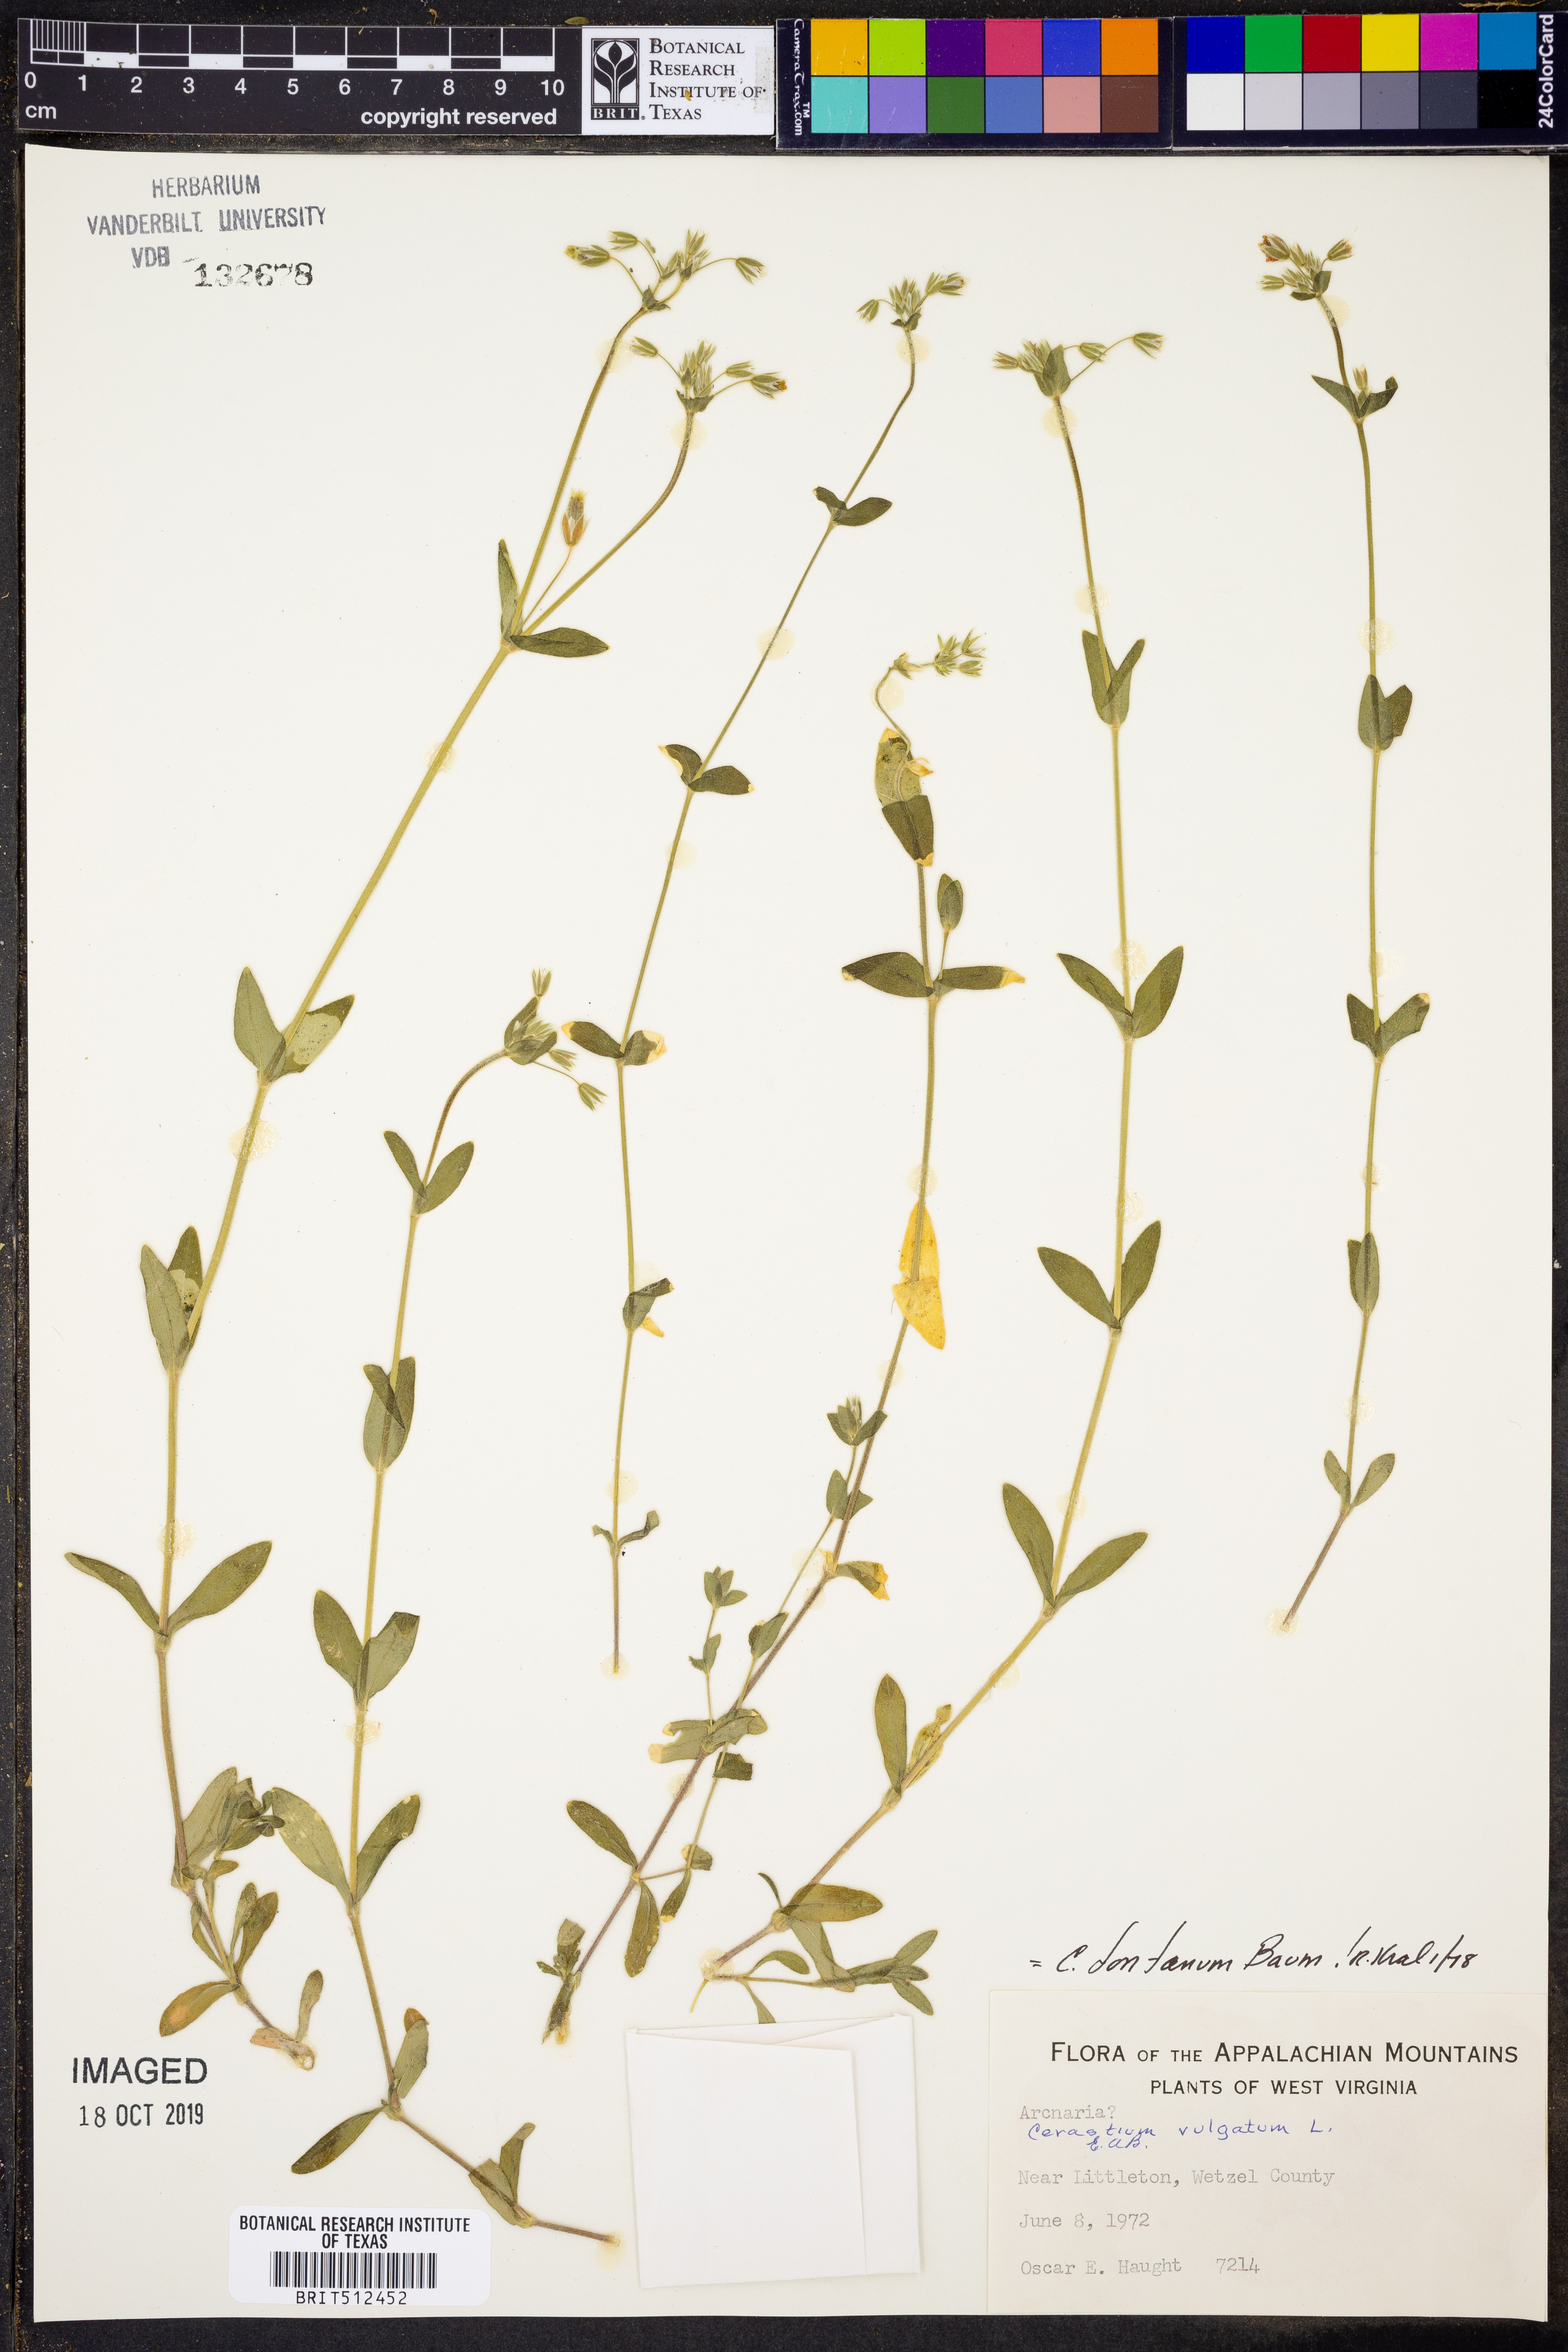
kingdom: Plantae
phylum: Tracheophyta
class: Magnoliopsida
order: Caryophyllales
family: Caryophyllaceae
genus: Cerastium
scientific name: Cerastium fontanum
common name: Common mouse-ear
